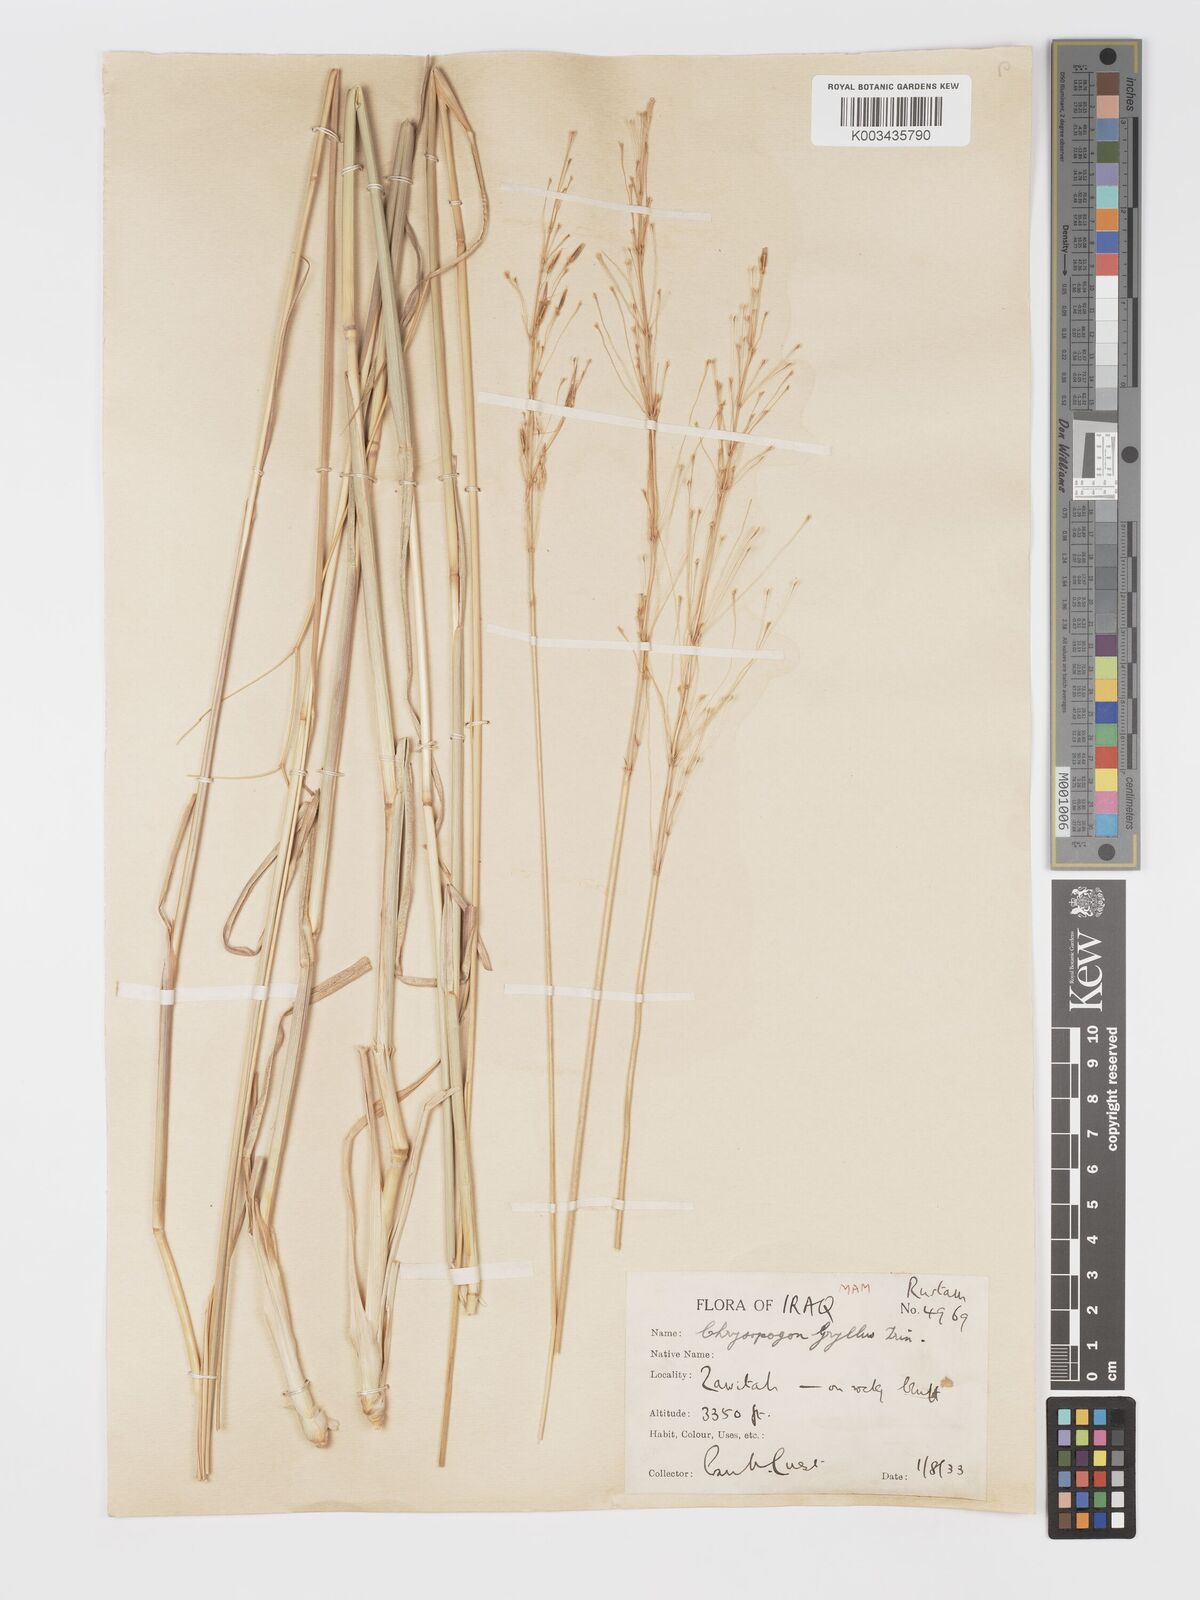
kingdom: Plantae
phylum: Tracheophyta
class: Liliopsida
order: Poales
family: Poaceae
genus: Chrysopogon
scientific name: Chrysopogon gryllus
